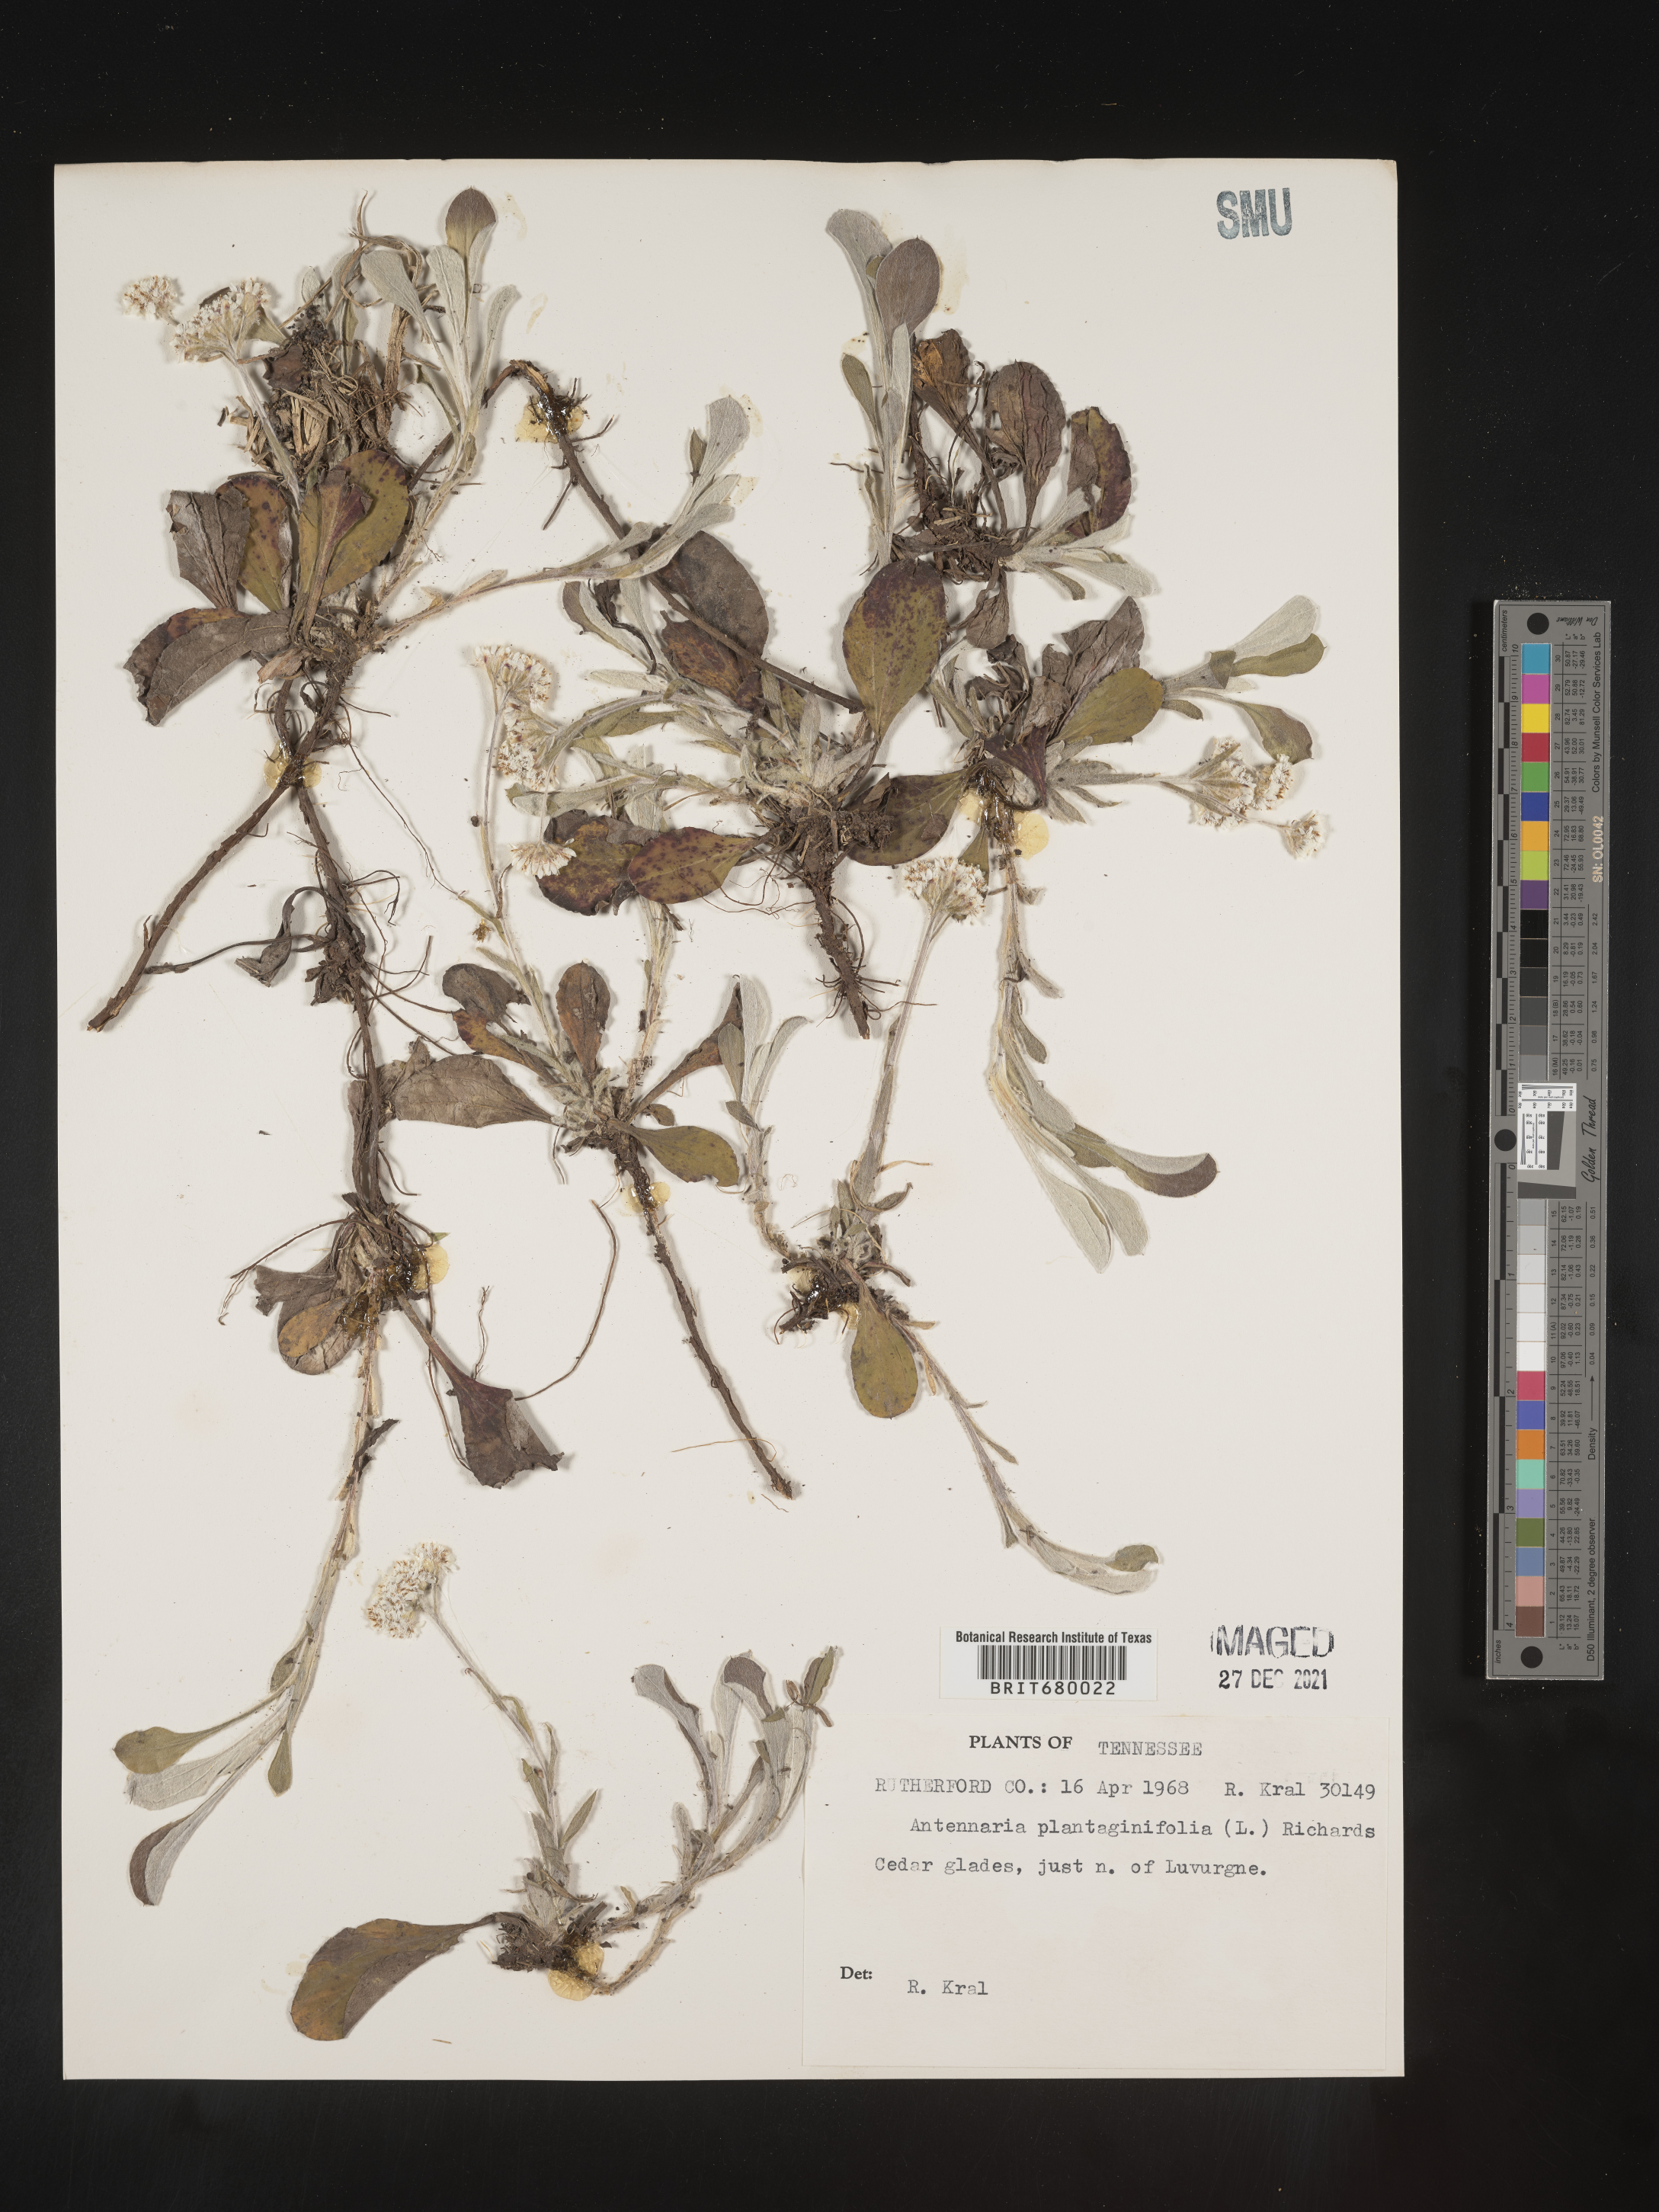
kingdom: Plantae
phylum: Tracheophyta
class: Magnoliopsida
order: Asterales
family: Asteraceae
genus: Antennaria
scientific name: Antennaria plantaginifolia
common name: Plantain-leaved pussytoes
